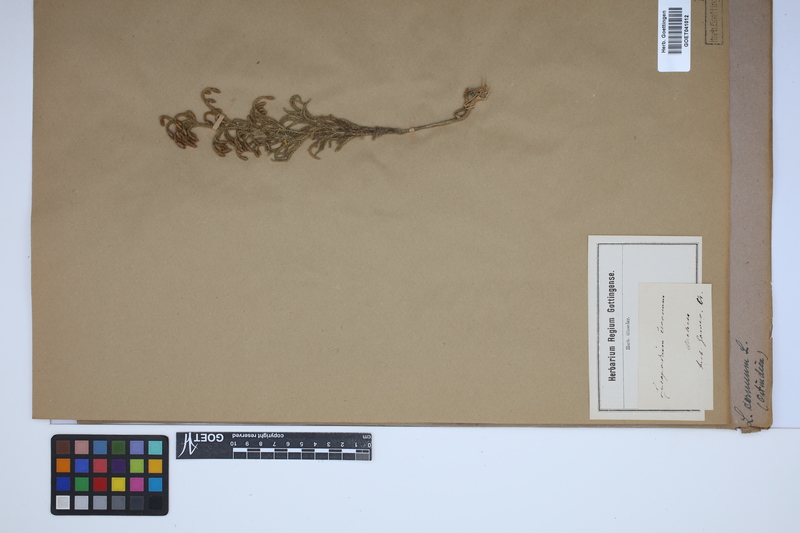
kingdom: Plantae
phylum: Tracheophyta
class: Lycopodiopsida
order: Lycopodiales
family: Lycopodiaceae
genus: Palhinhaea
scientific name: Palhinhaea cernua
